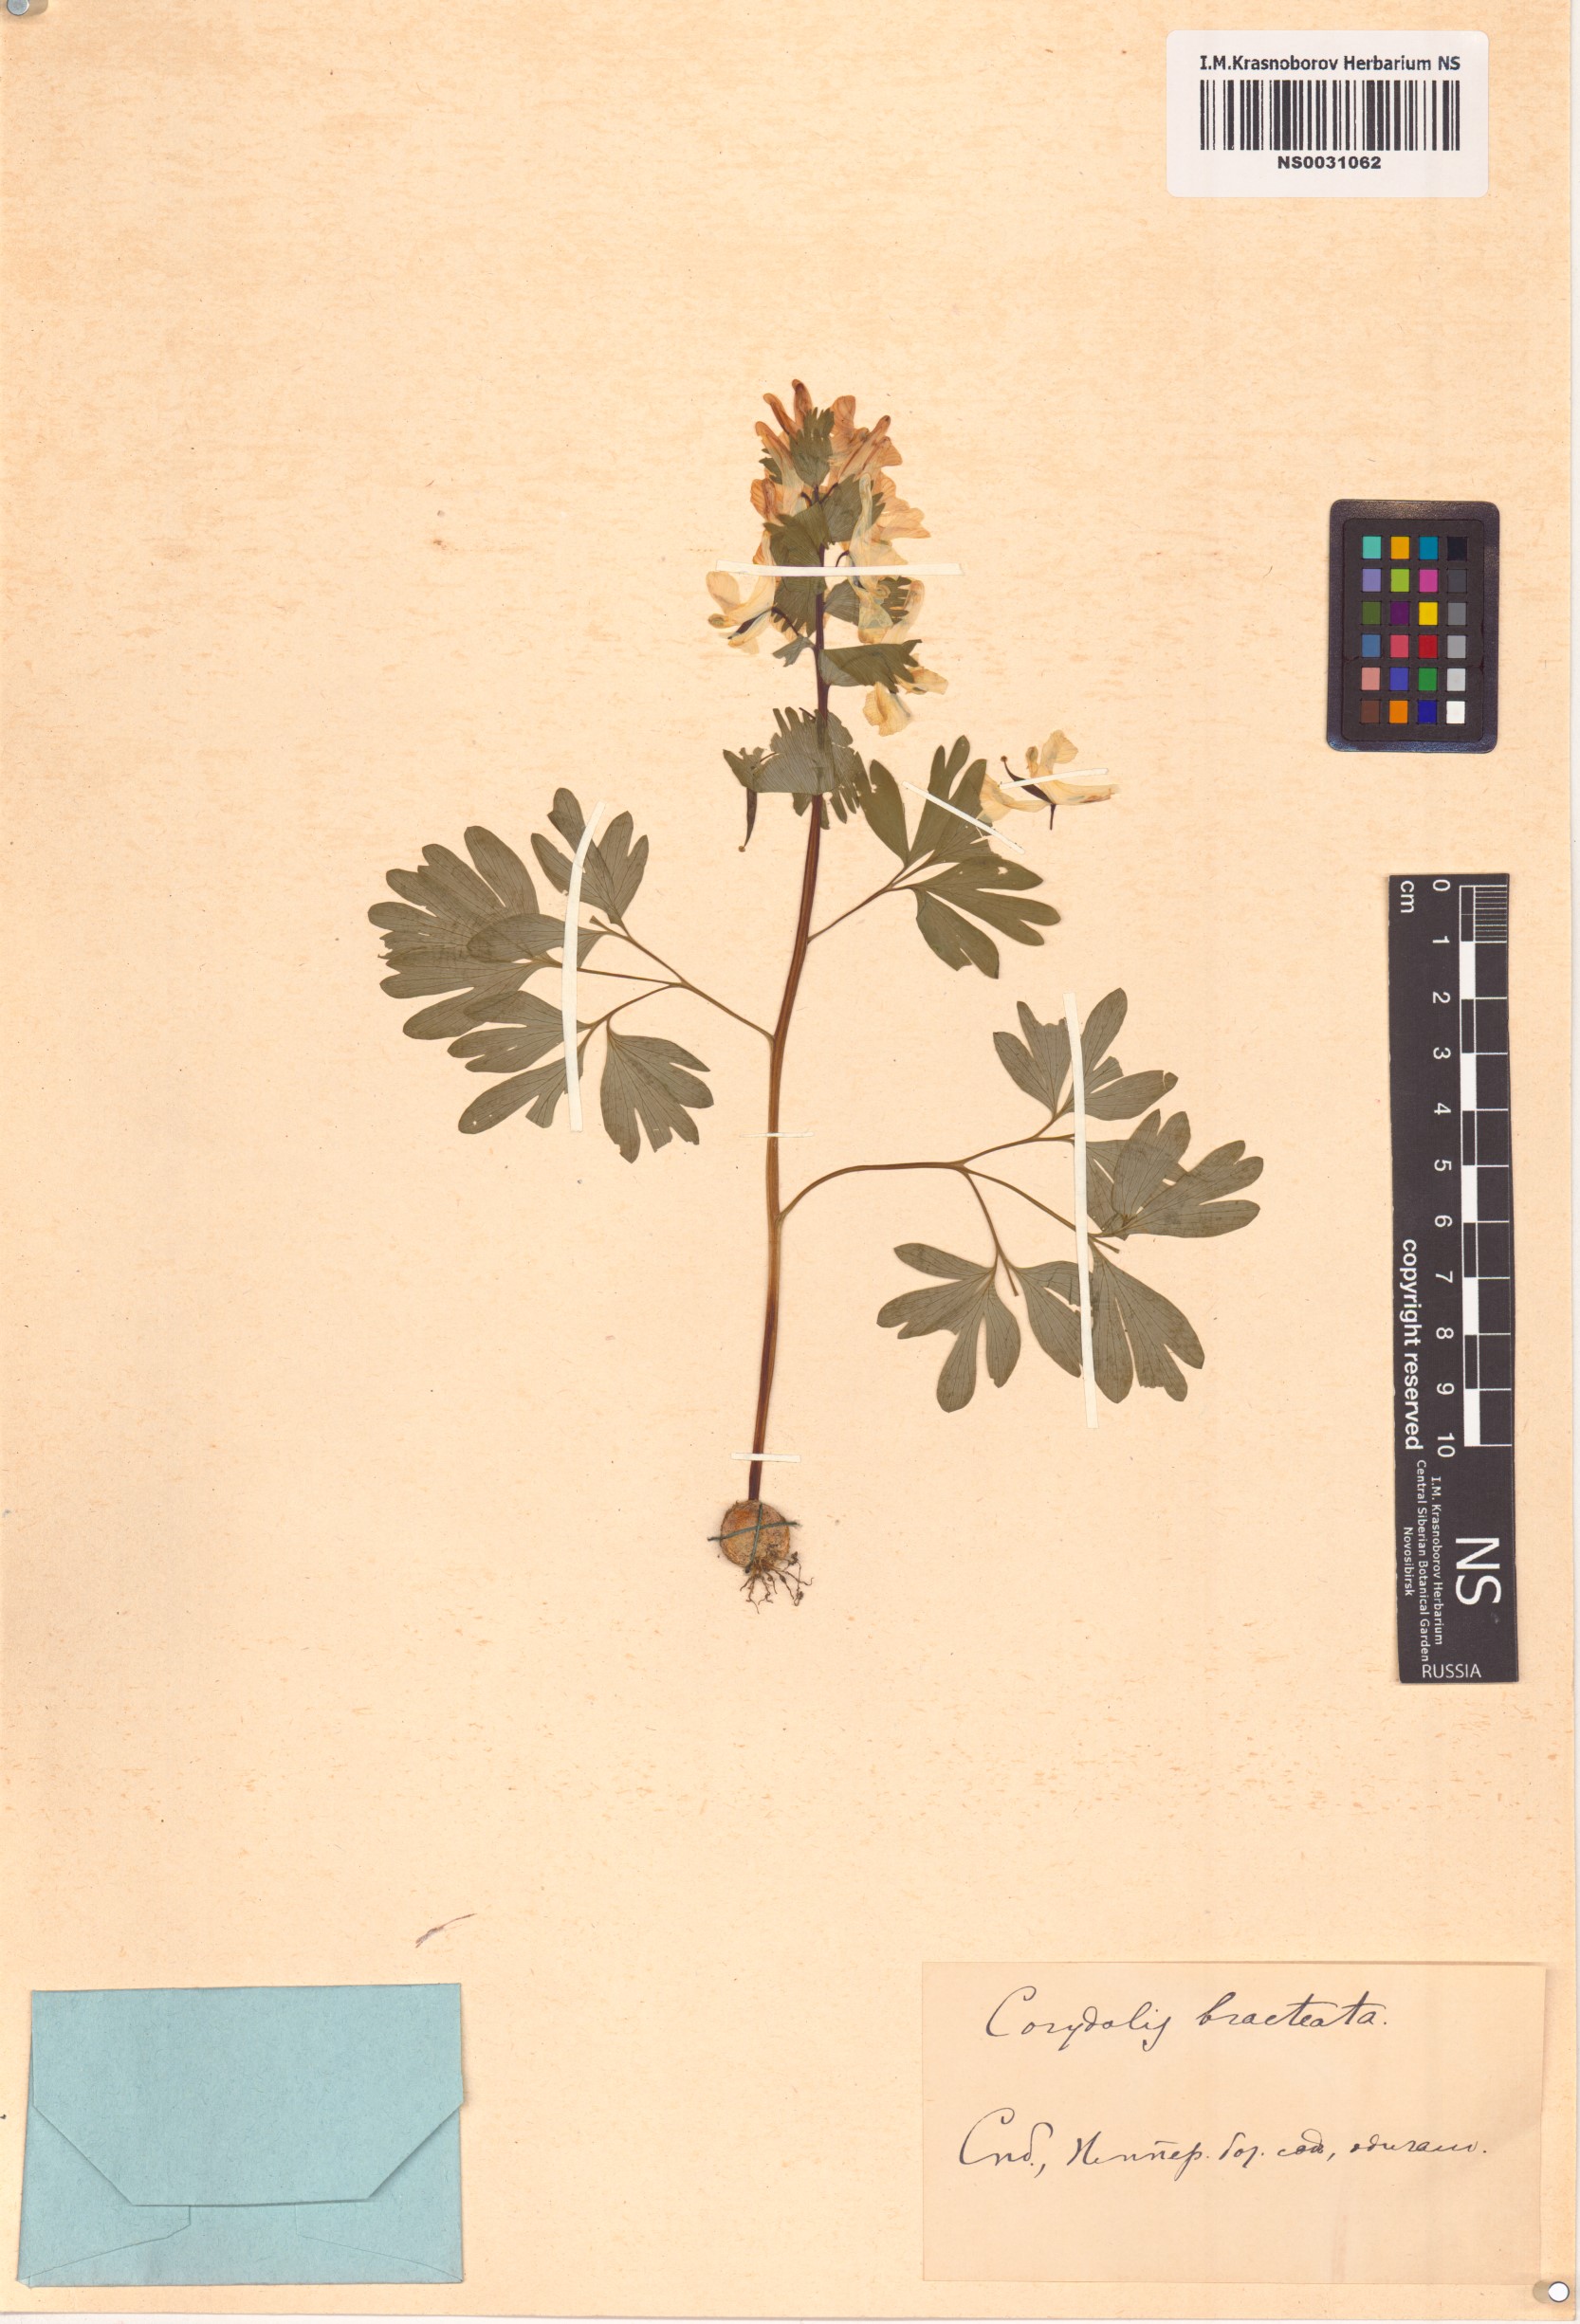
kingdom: Plantae
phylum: Tracheophyta
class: Magnoliopsida
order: Ranunculales
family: Papaveraceae
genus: Corydalis
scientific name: Corydalis bracteata
